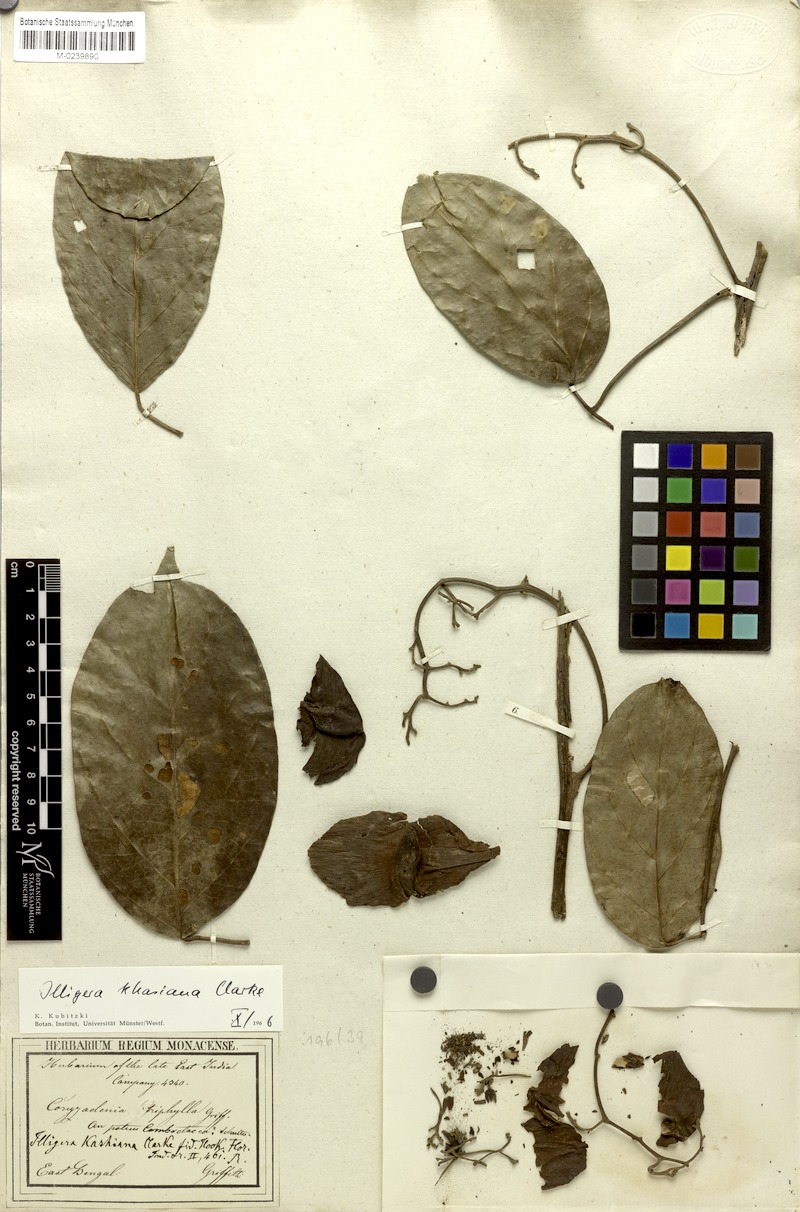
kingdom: Plantae
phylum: Tracheophyta
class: Magnoliopsida
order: Laurales
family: Hernandiaceae
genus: Illigera
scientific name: Illigera khasiana
